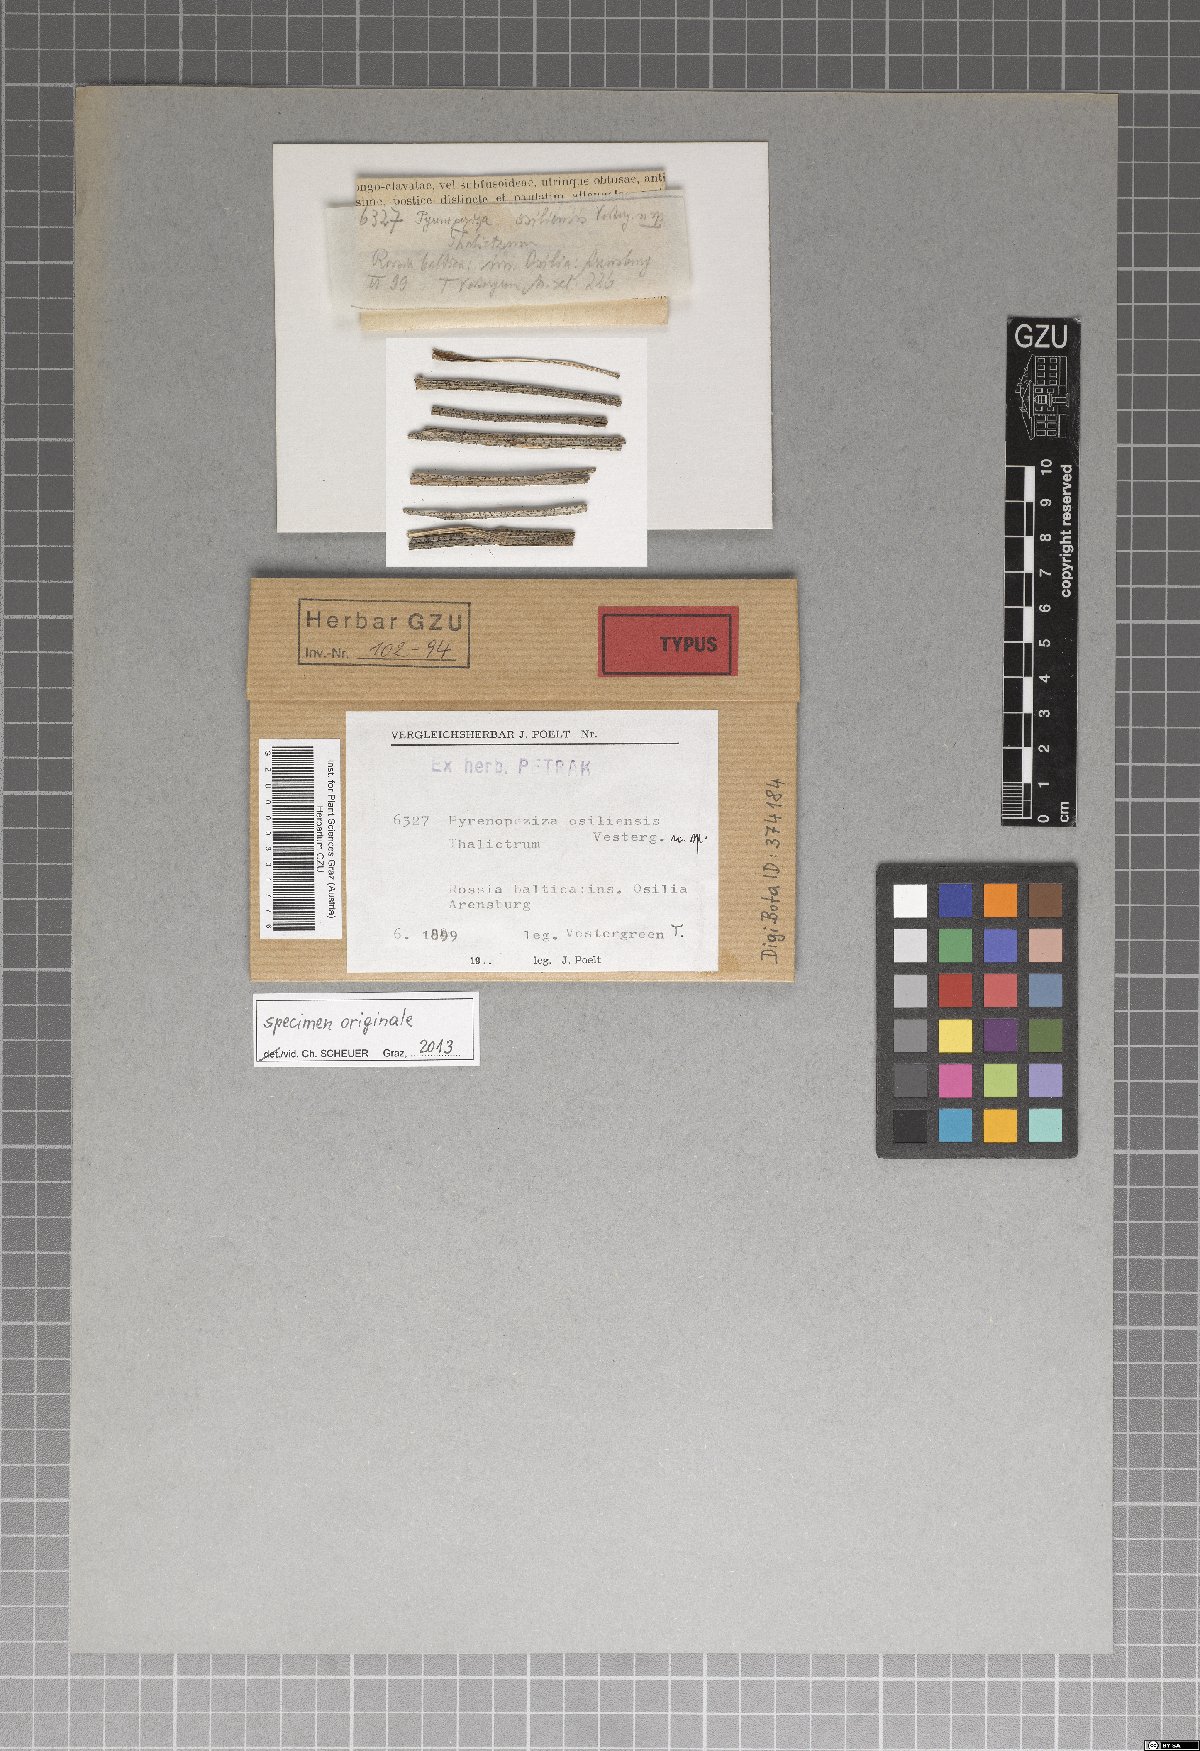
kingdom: Fungi
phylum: Ascomycota
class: Leotiomycetes
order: Helotiales
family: Ploettnerulaceae
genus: Pyrenopeziza
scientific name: Pyrenopeziza osiliensis
